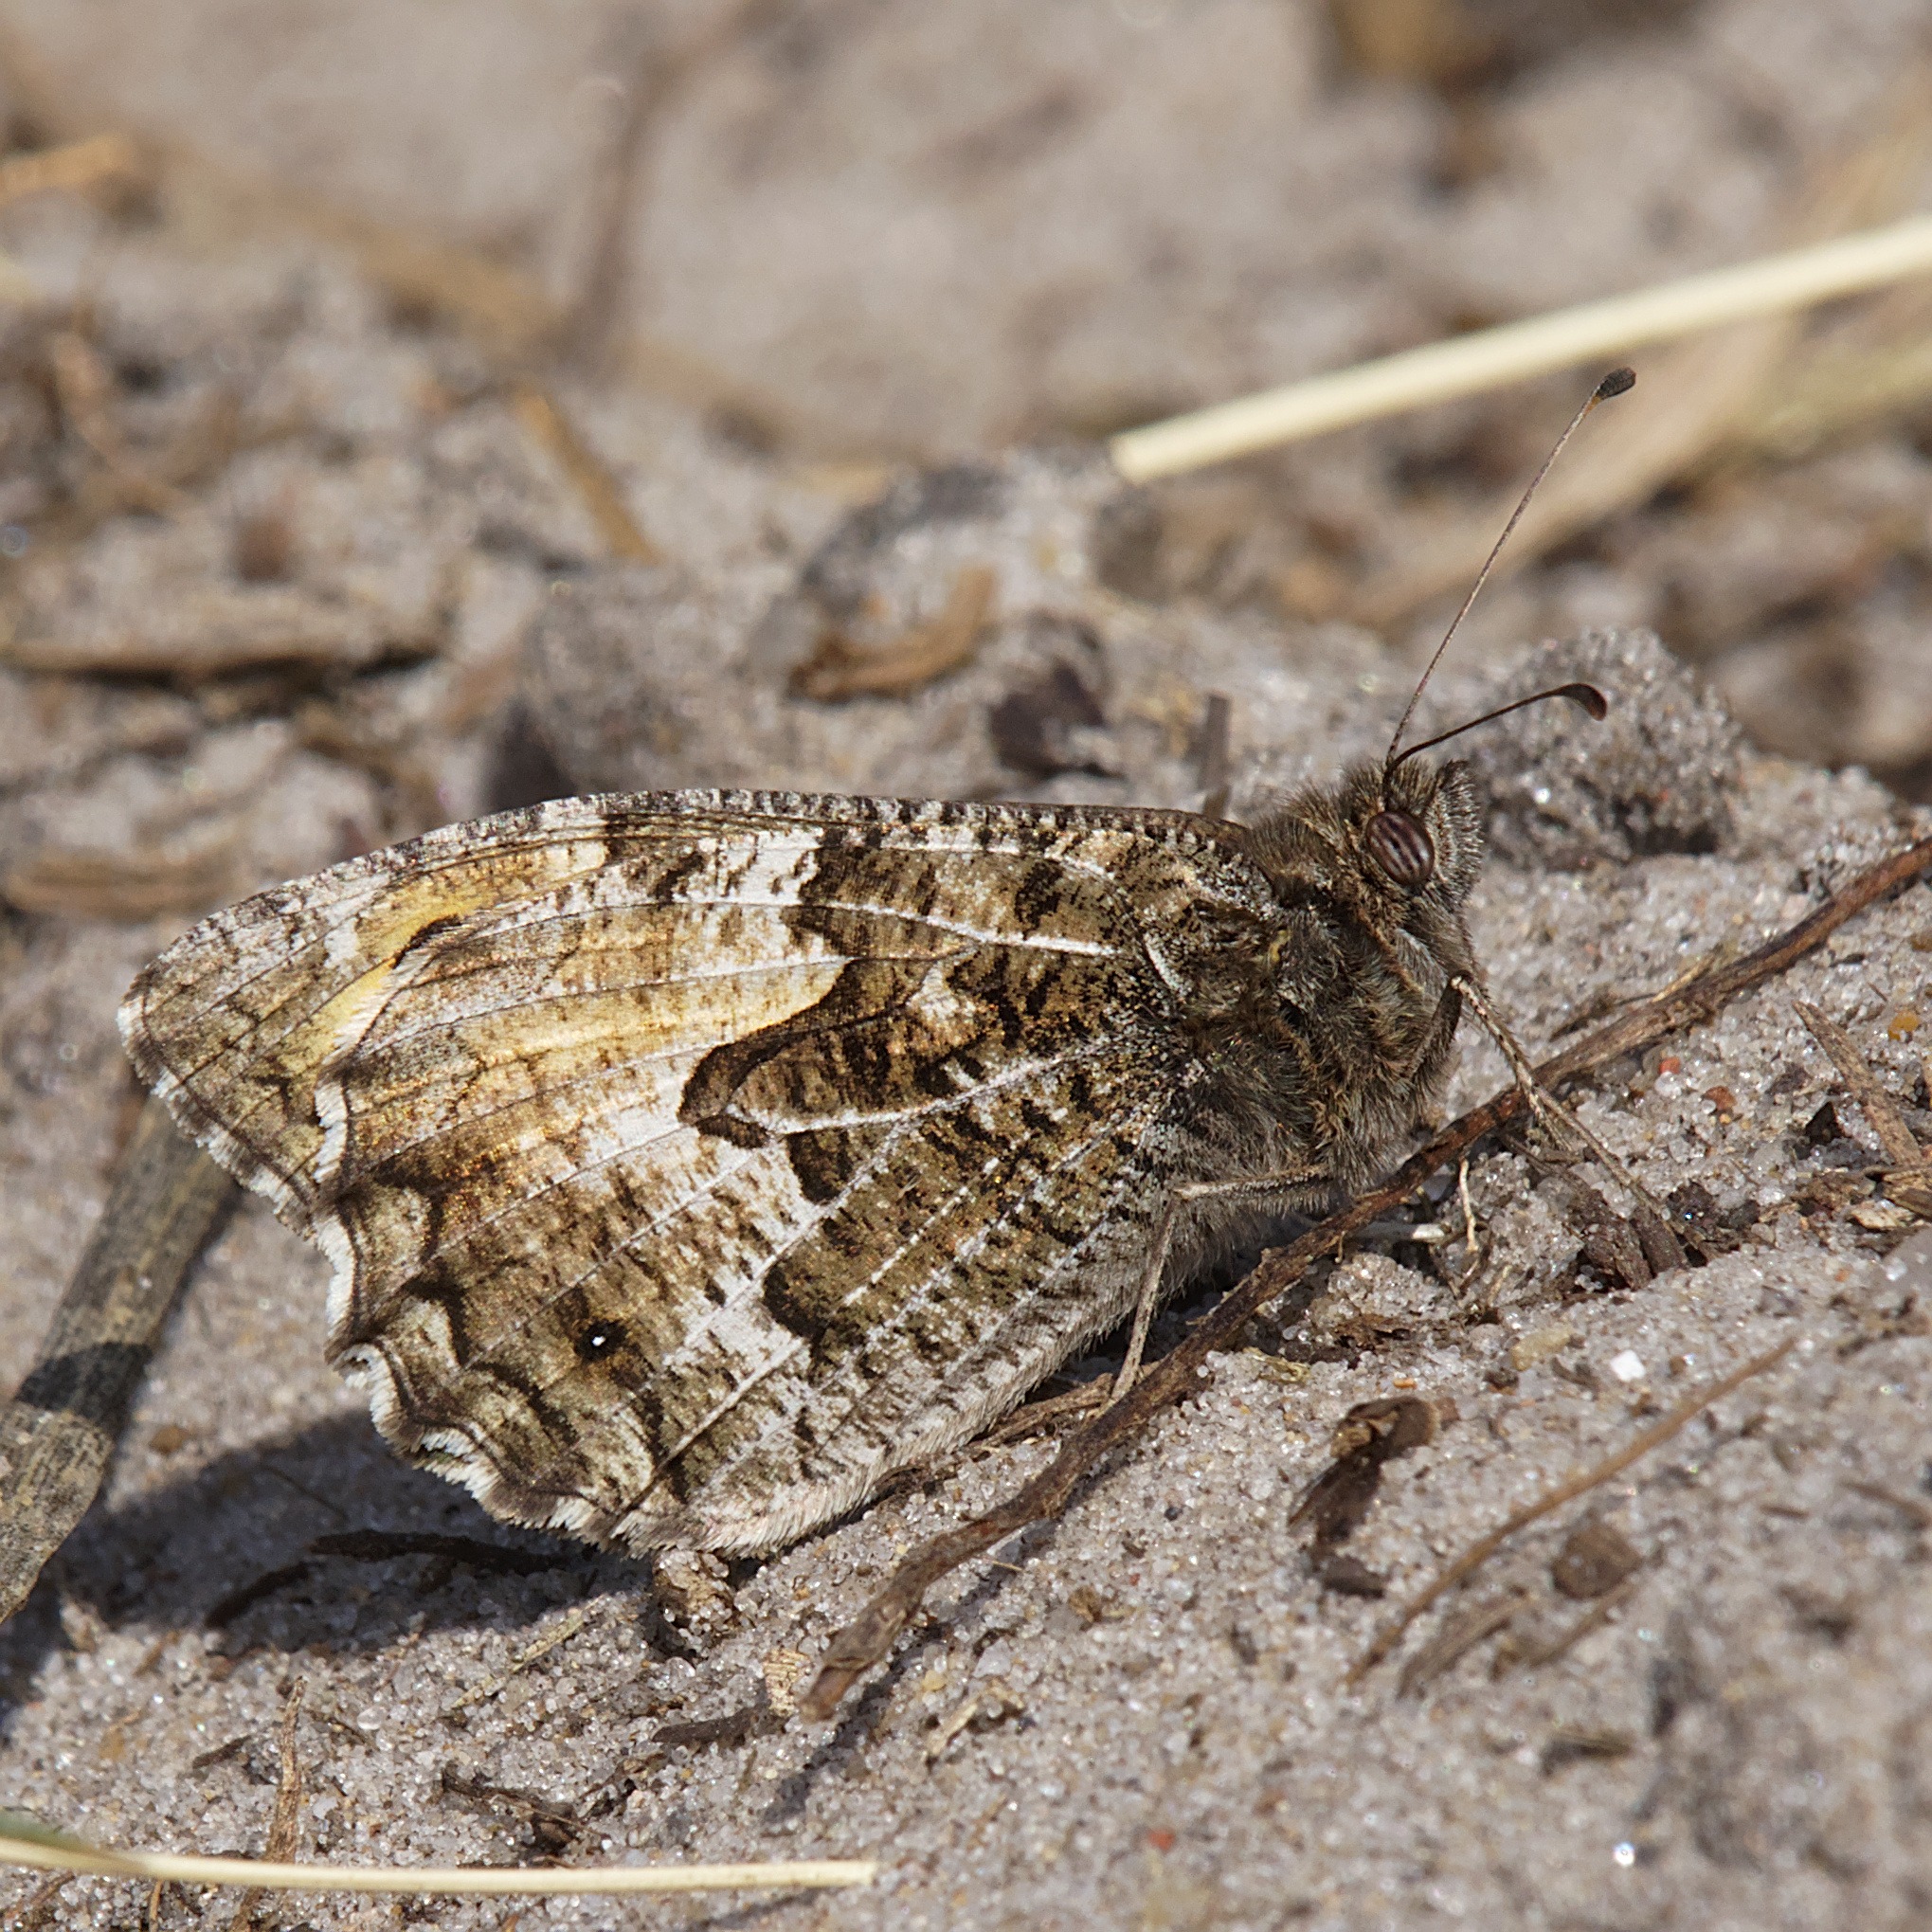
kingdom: Animalia
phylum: Arthropoda
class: Insecta
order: Lepidoptera
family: Nymphalidae
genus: Hipparchia
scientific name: Hipparchia semele
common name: Sandrandøje
